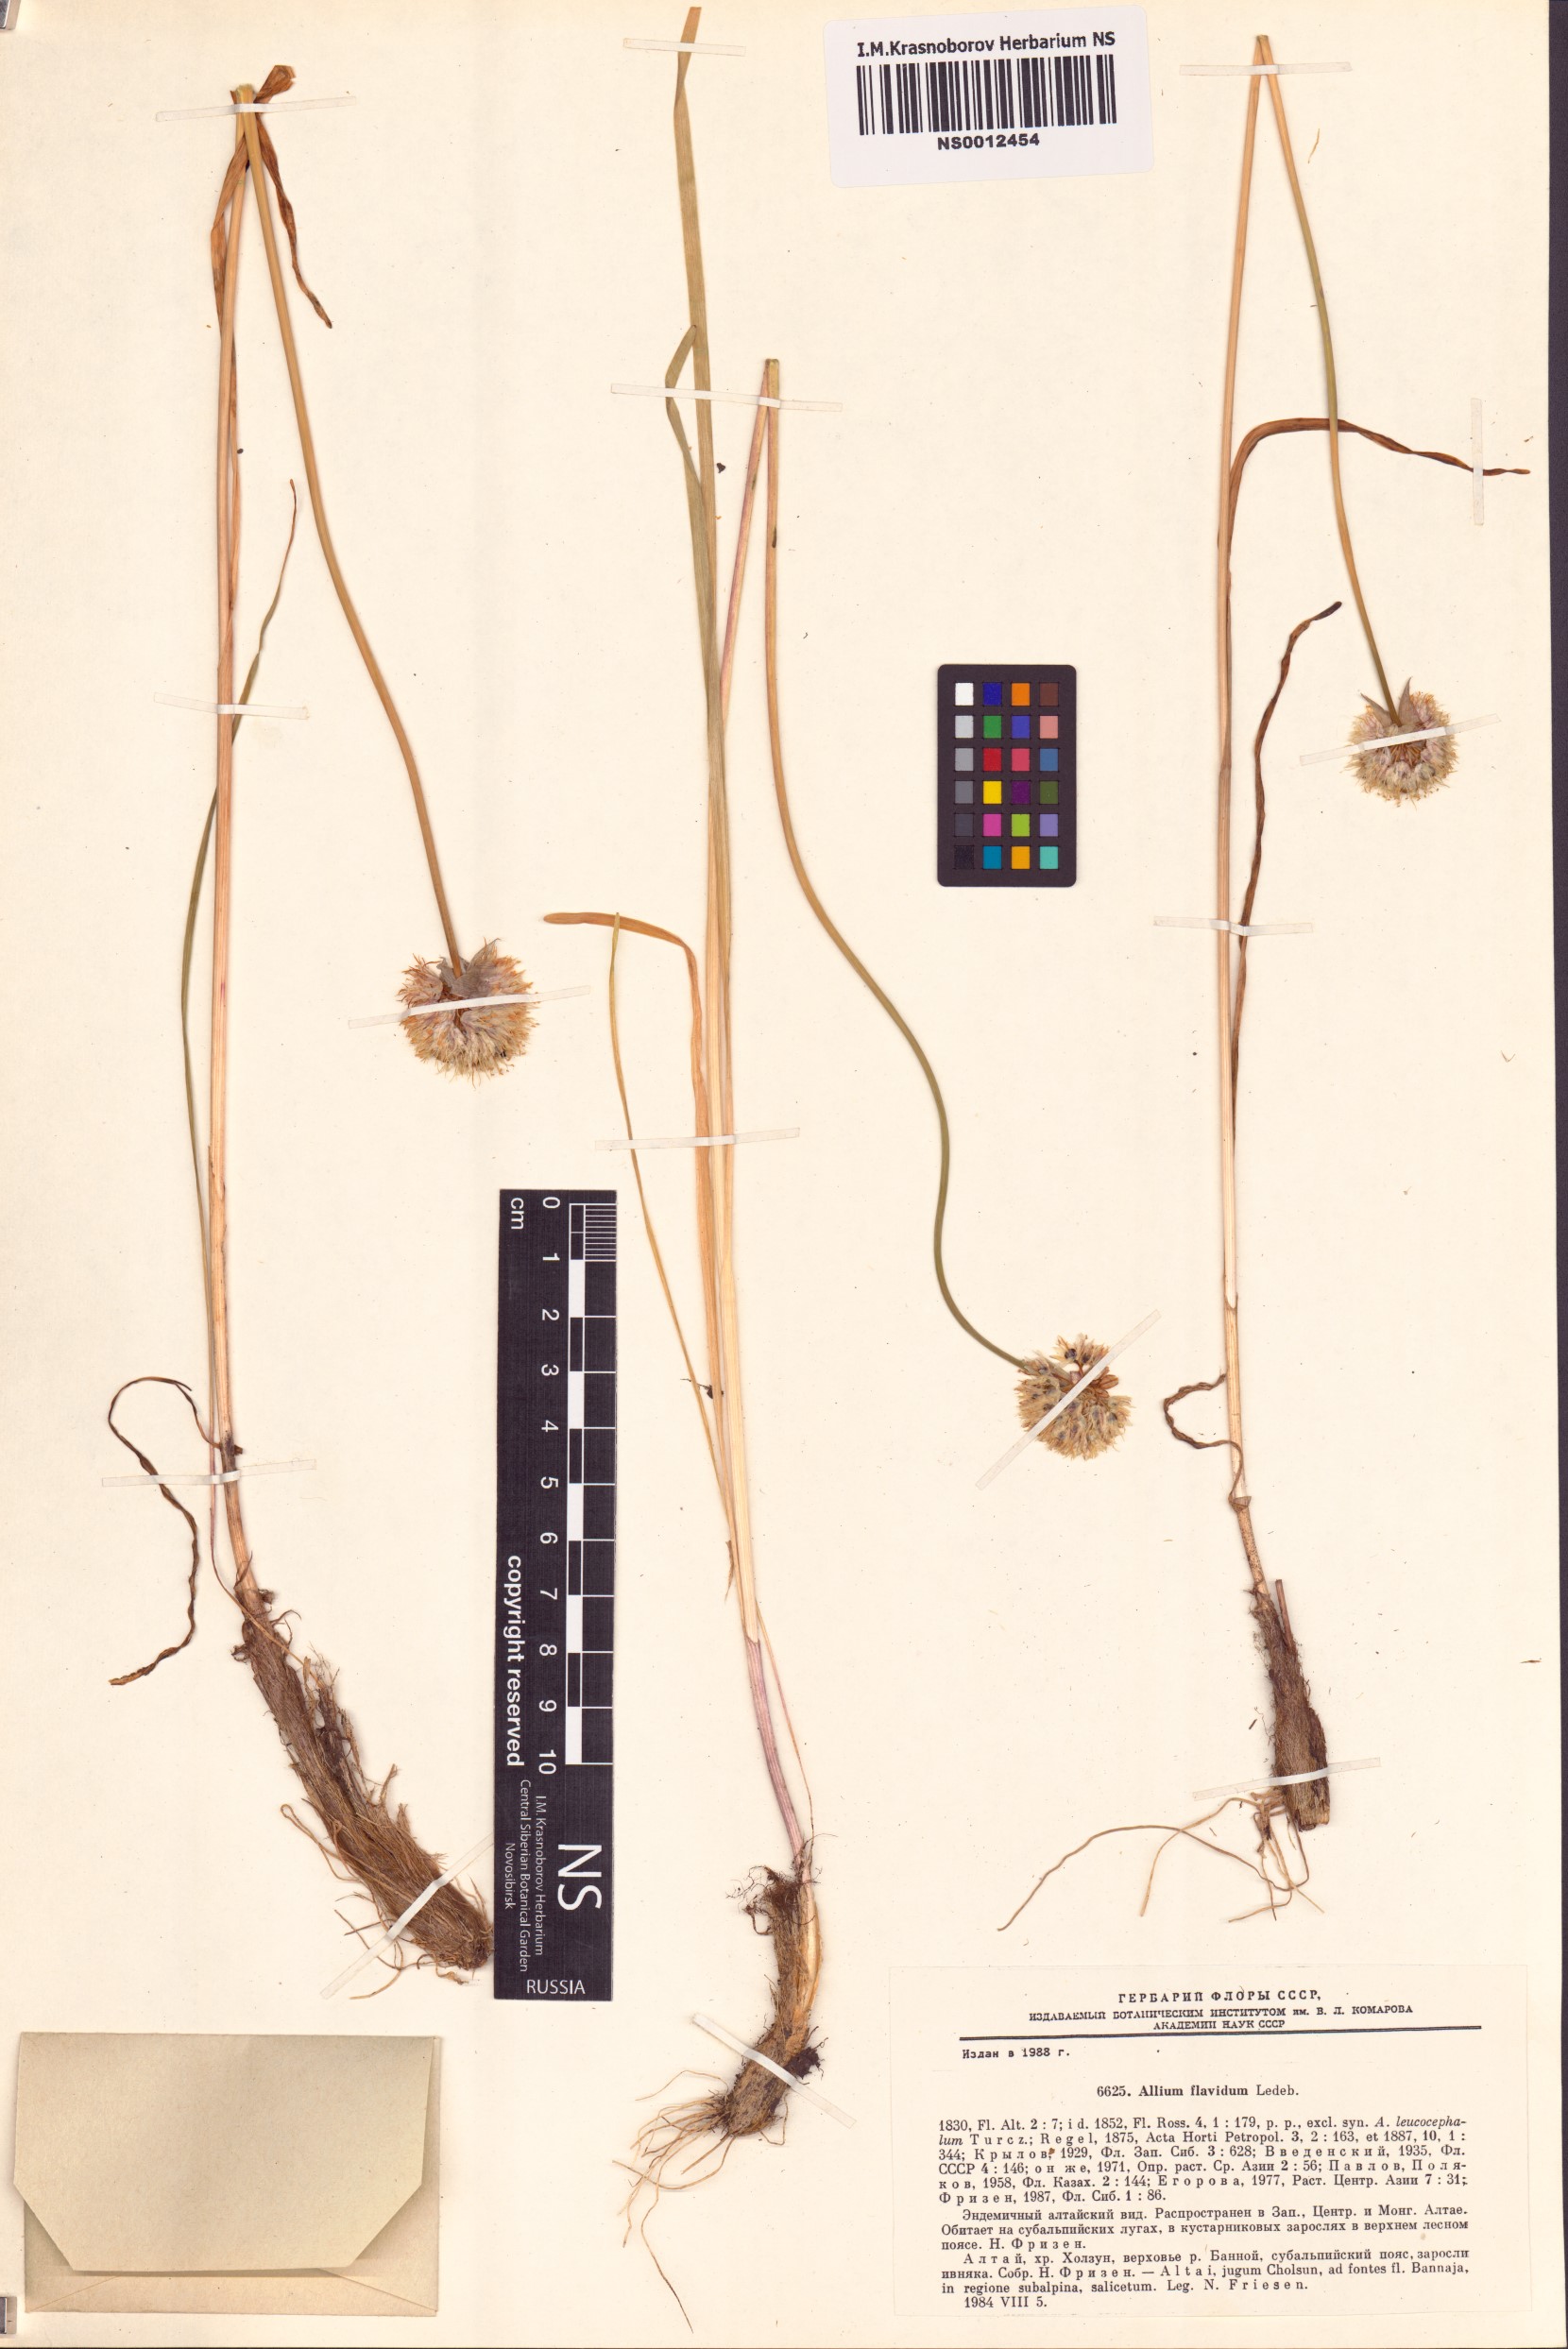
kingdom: Plantae
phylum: Tracheophyta
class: Liliopsida
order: Asparagales
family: Amaryllidaceae
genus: Allium
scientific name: Allium flavidum
